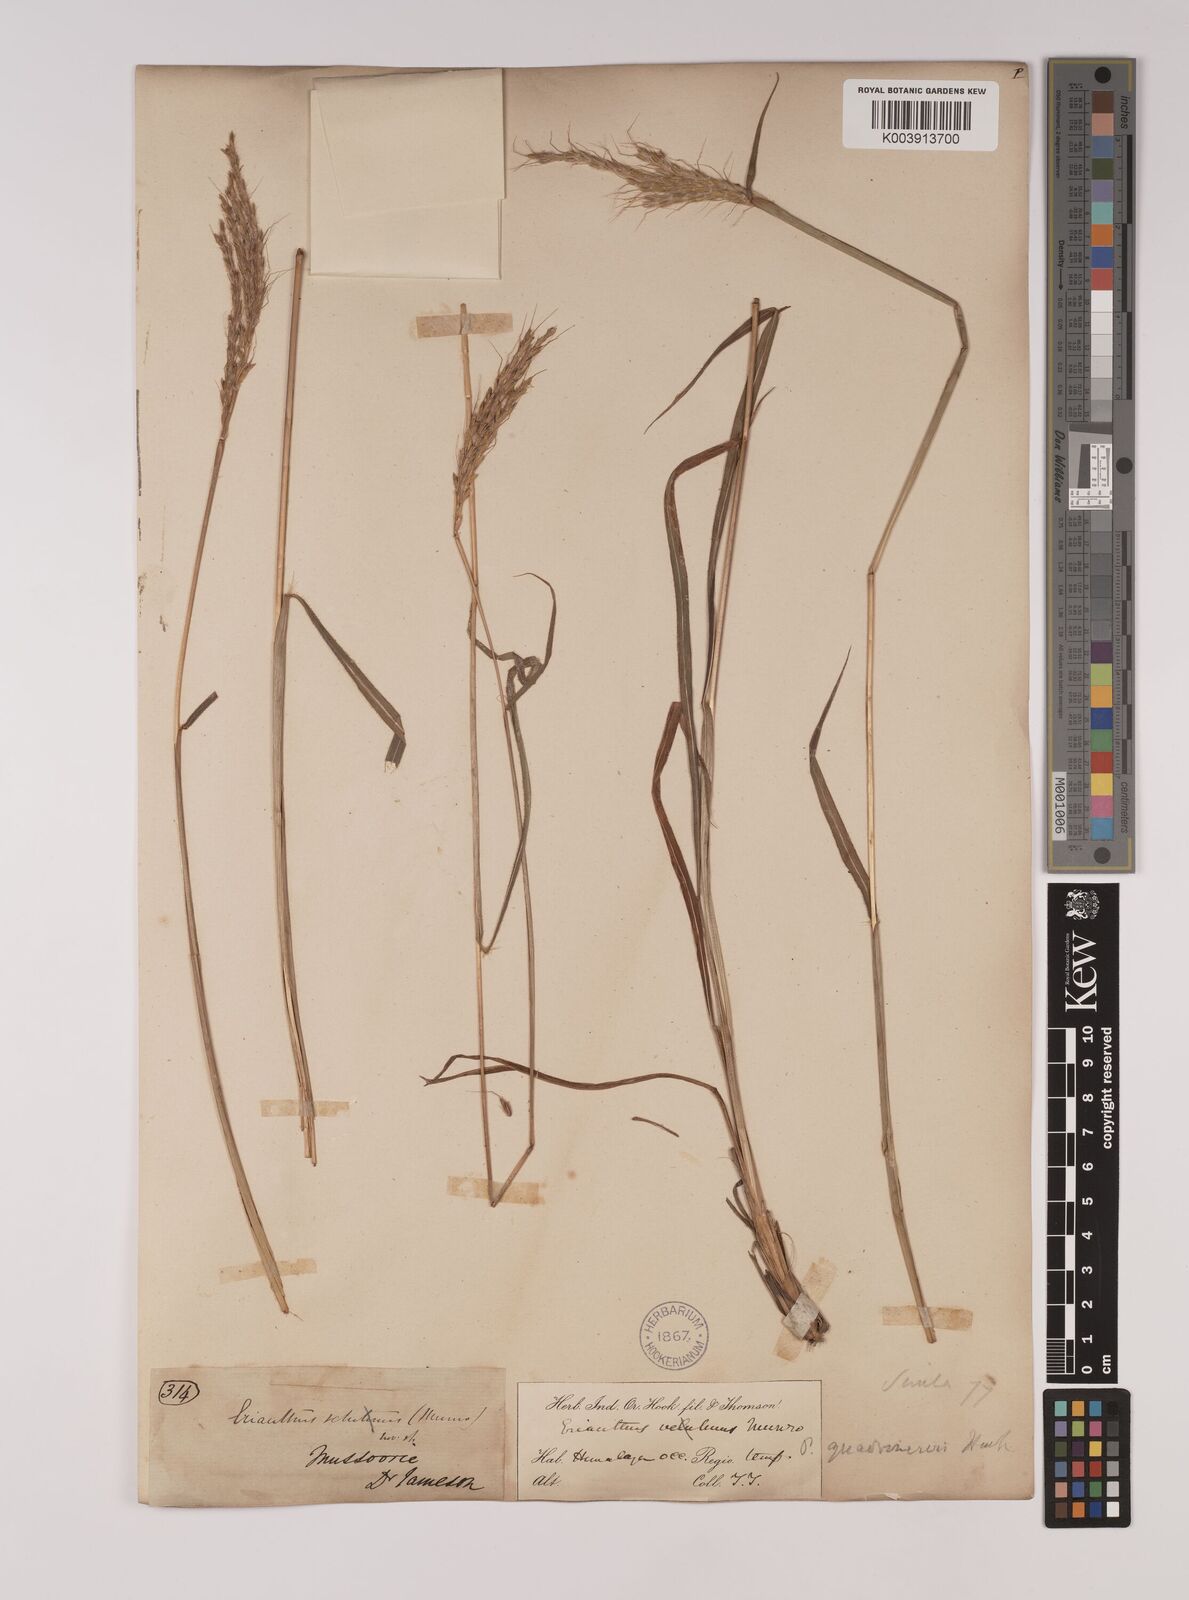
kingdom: Plantae
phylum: Tracheophyta
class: Liliopsida
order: Poales
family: Poaceae
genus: Pseudopogonatherum
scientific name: Pseudopogonatherum quadrinerve
